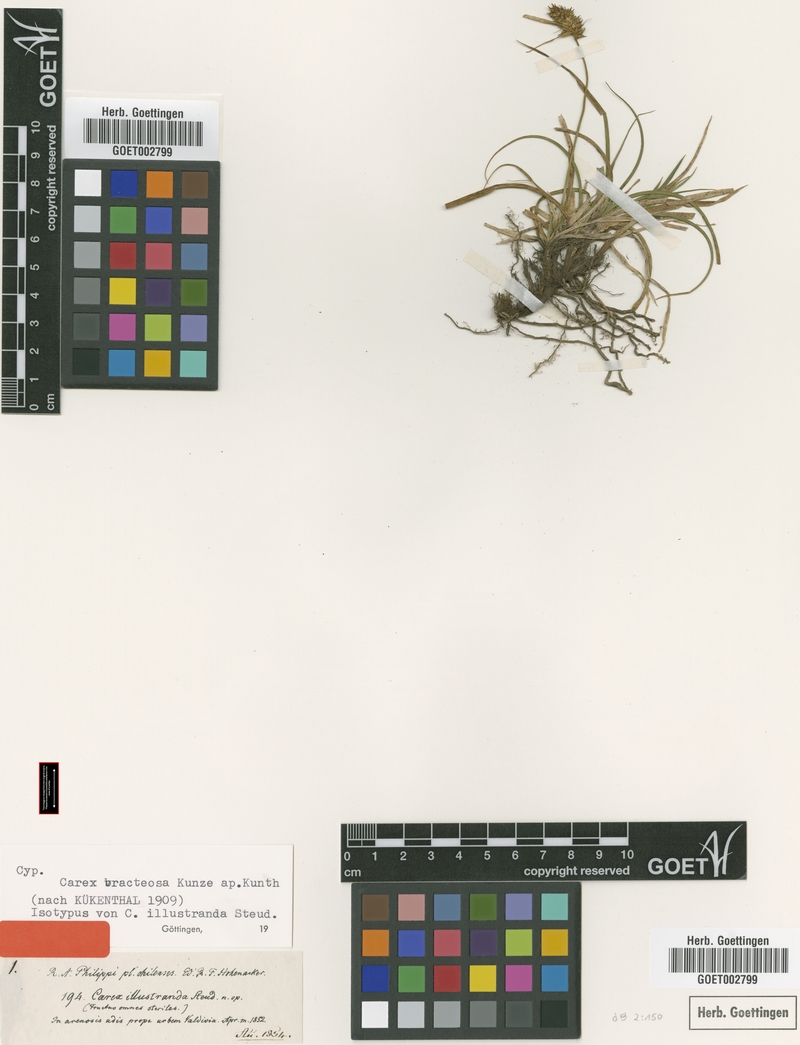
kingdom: Plantae
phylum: Tracheophyta
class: Liliopsida
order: Poales
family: Cyperaceae
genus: Carex
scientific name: Carex bracteosa
